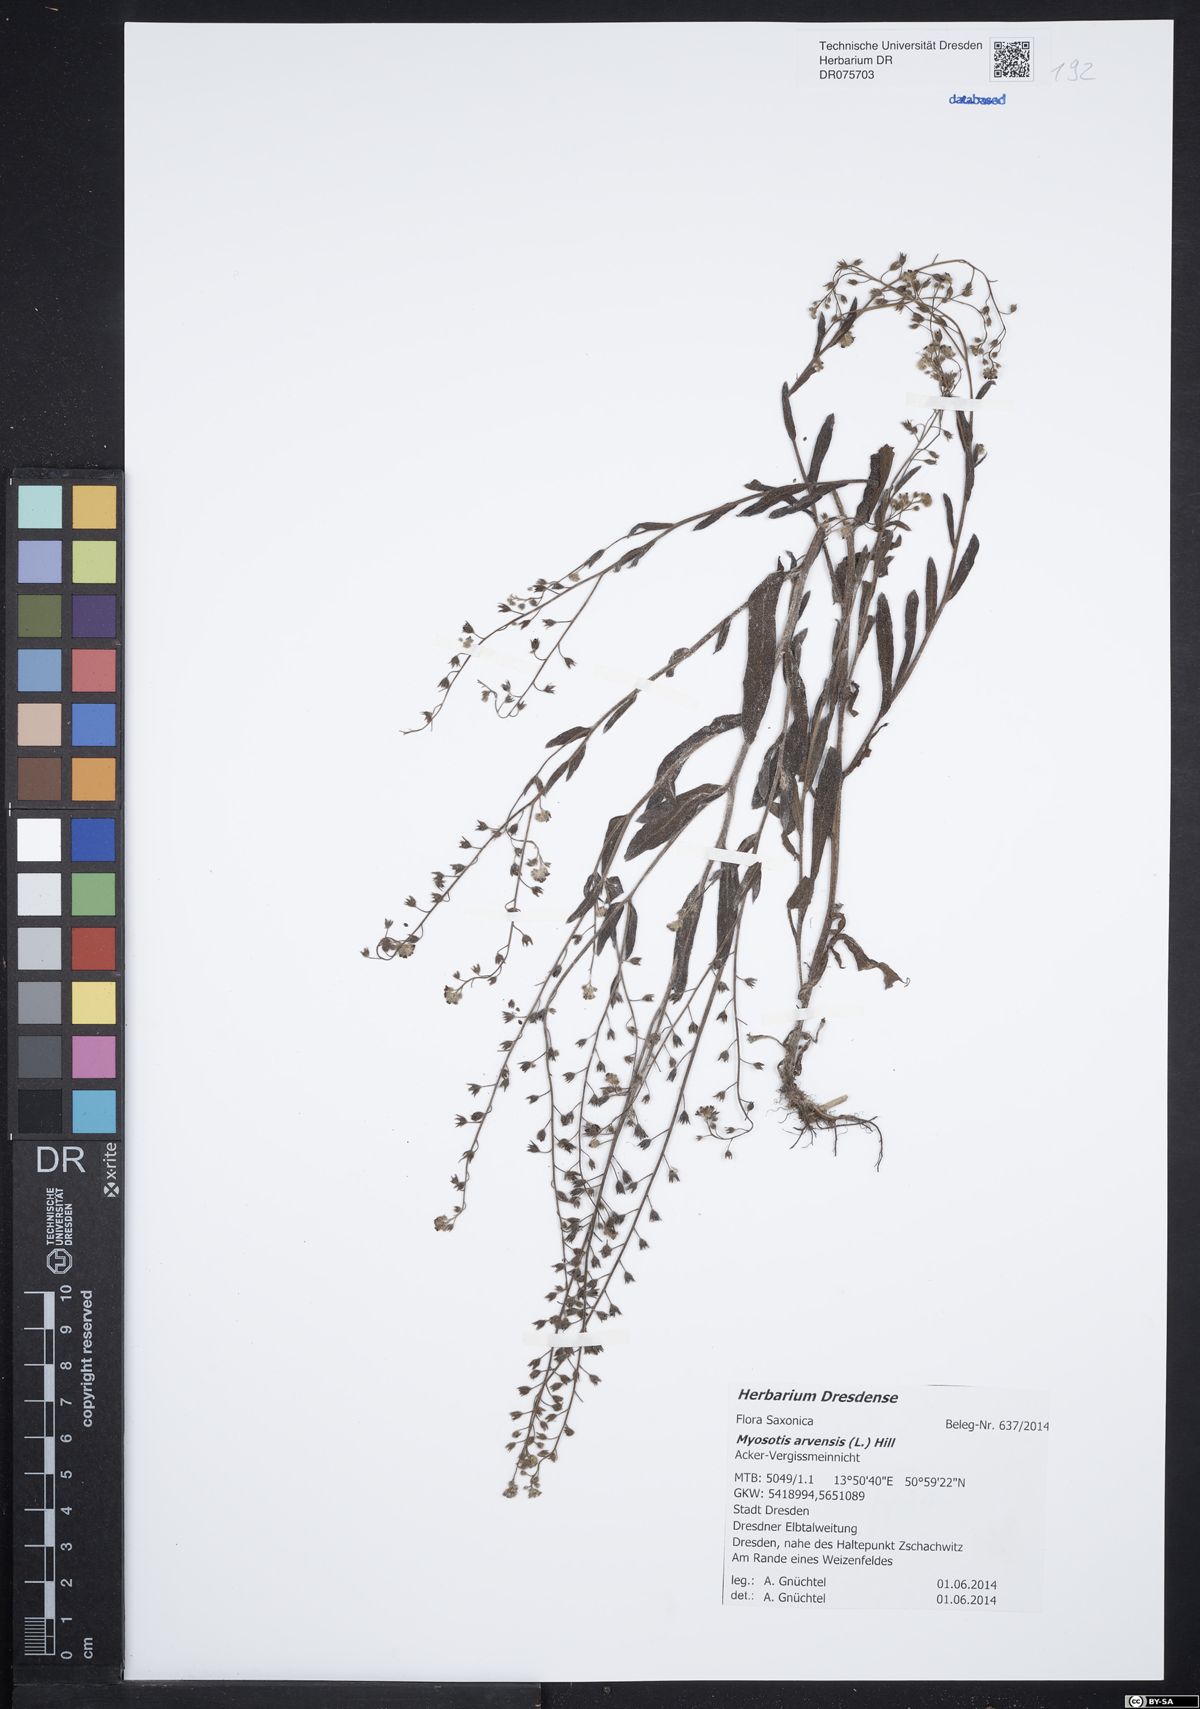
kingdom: Plantae
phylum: Tracheophyta
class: Magnoliopsida
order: Boraginales
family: Boraginaceae
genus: Myosotis
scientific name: Myosotis arvensis
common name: Field forget-me-not
